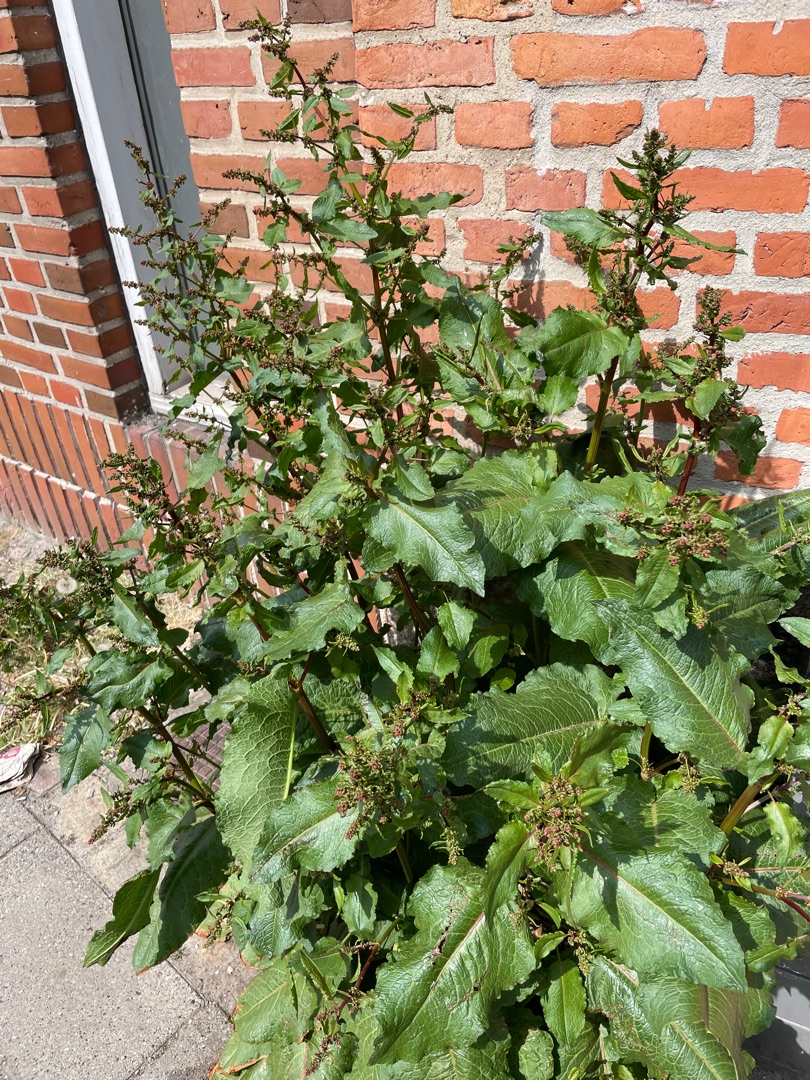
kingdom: Plantae
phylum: Tracheophyta
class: Magnoliopsida
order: Caryophyllales
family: Polygonaceae
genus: Rumex
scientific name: Rumex obtusifolius
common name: Butbladet skræppe
